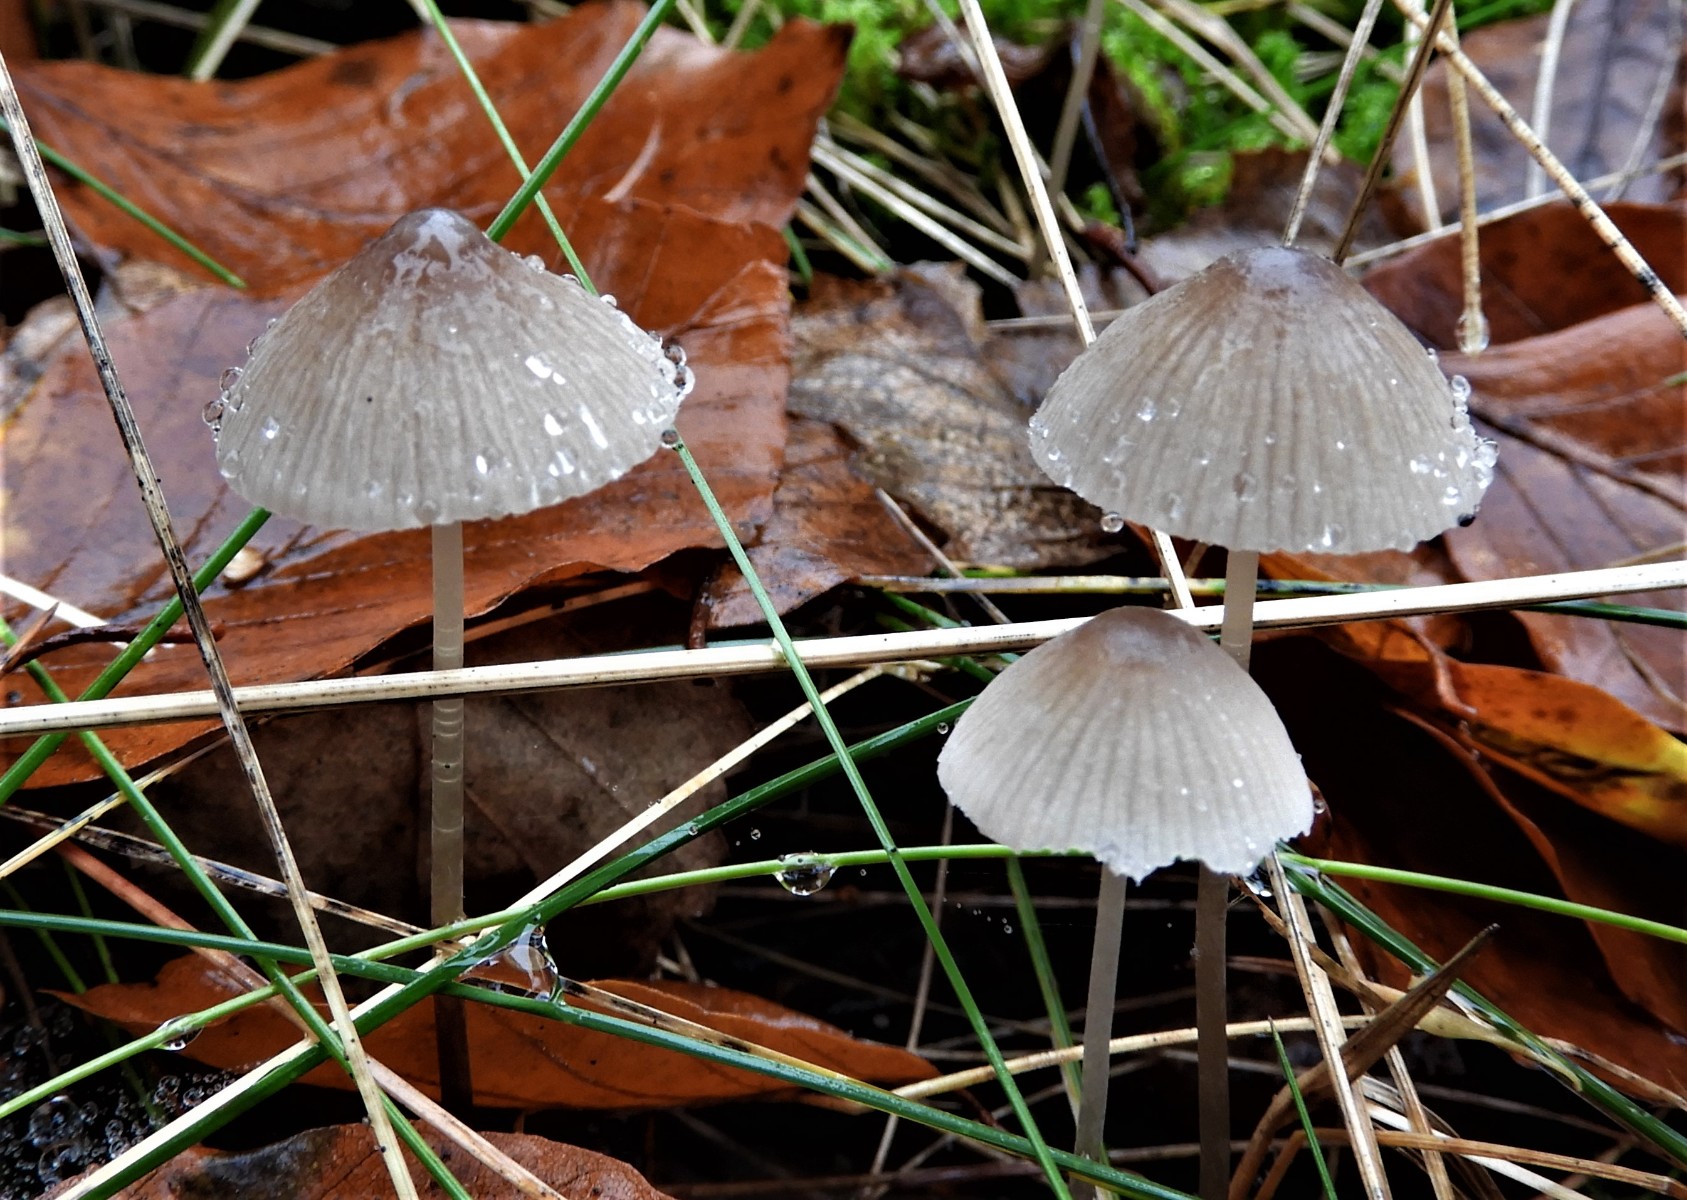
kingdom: Fungi
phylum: Basidiomycota
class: Agaricomycetes
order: Agaricales
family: Mycenaceae
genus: Mycena
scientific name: Mycena polygramma
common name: mangestribet huesvamp
